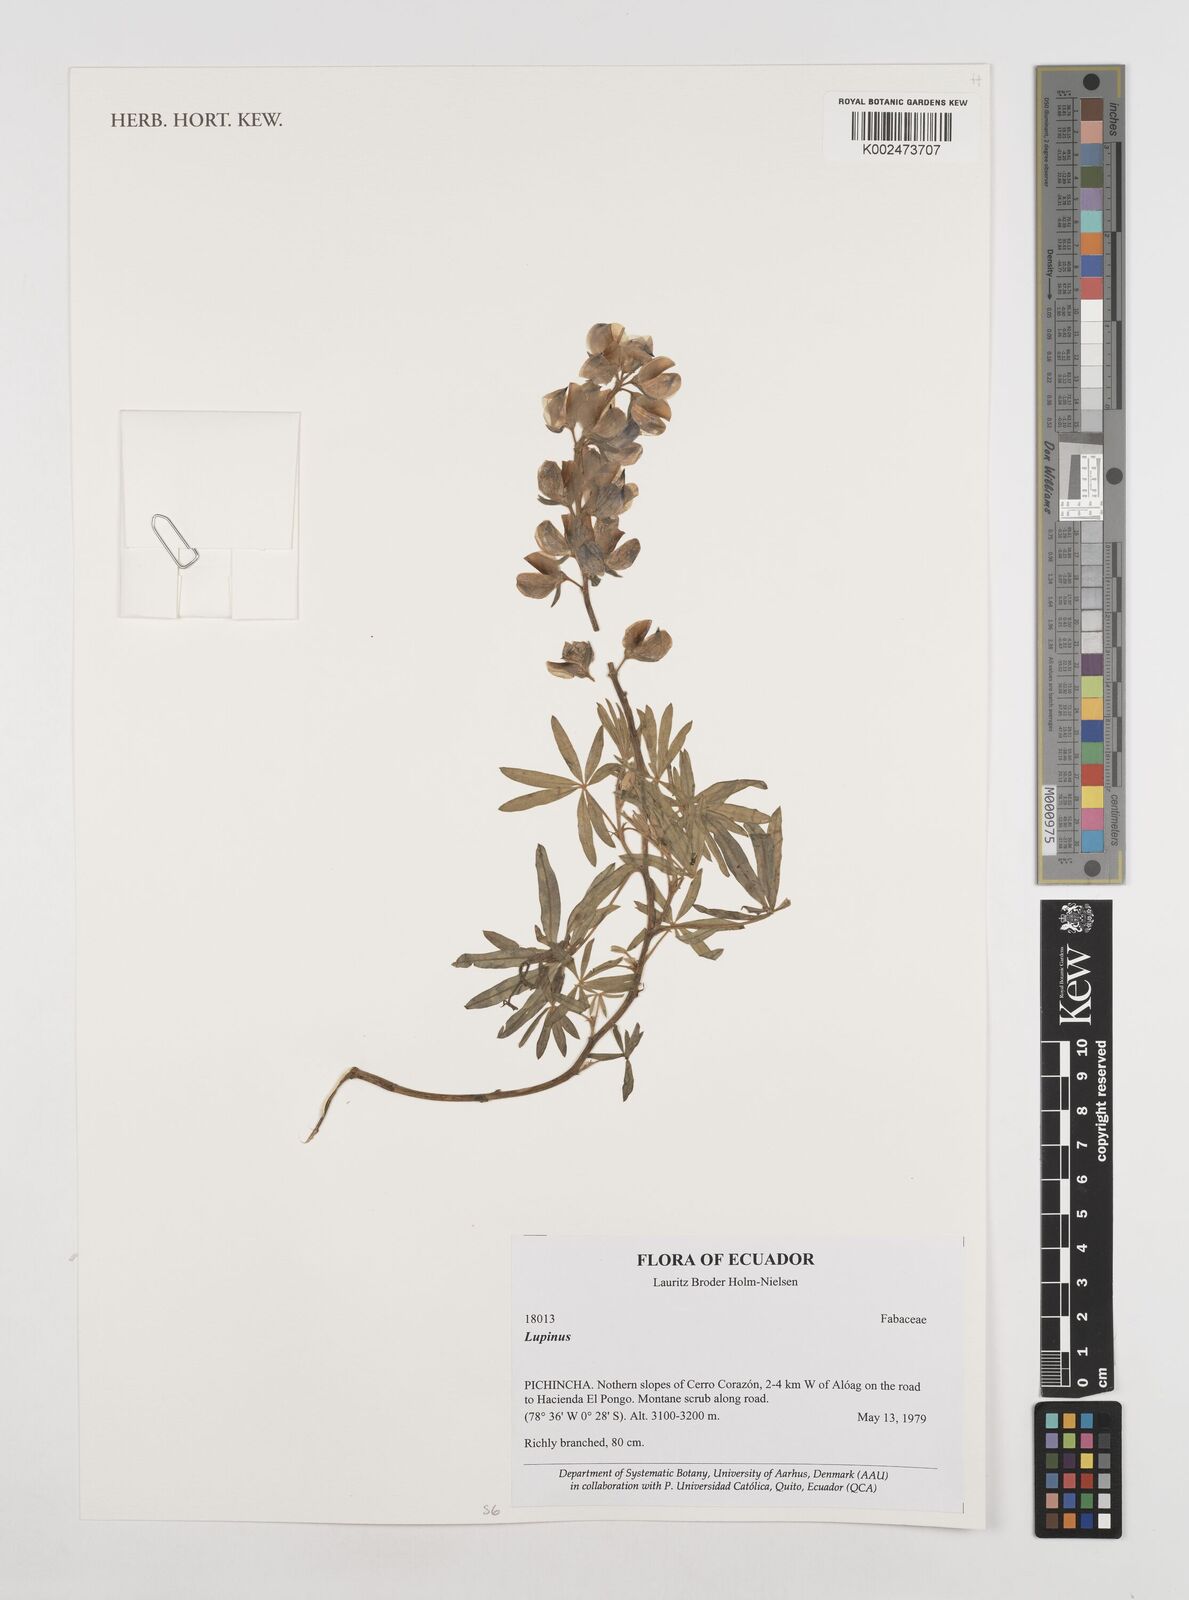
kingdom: Plantae
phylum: Tracheophyta
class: Magnoliopsida
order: Fabales
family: Fabaceae
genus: Lupinus
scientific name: Lupinus
